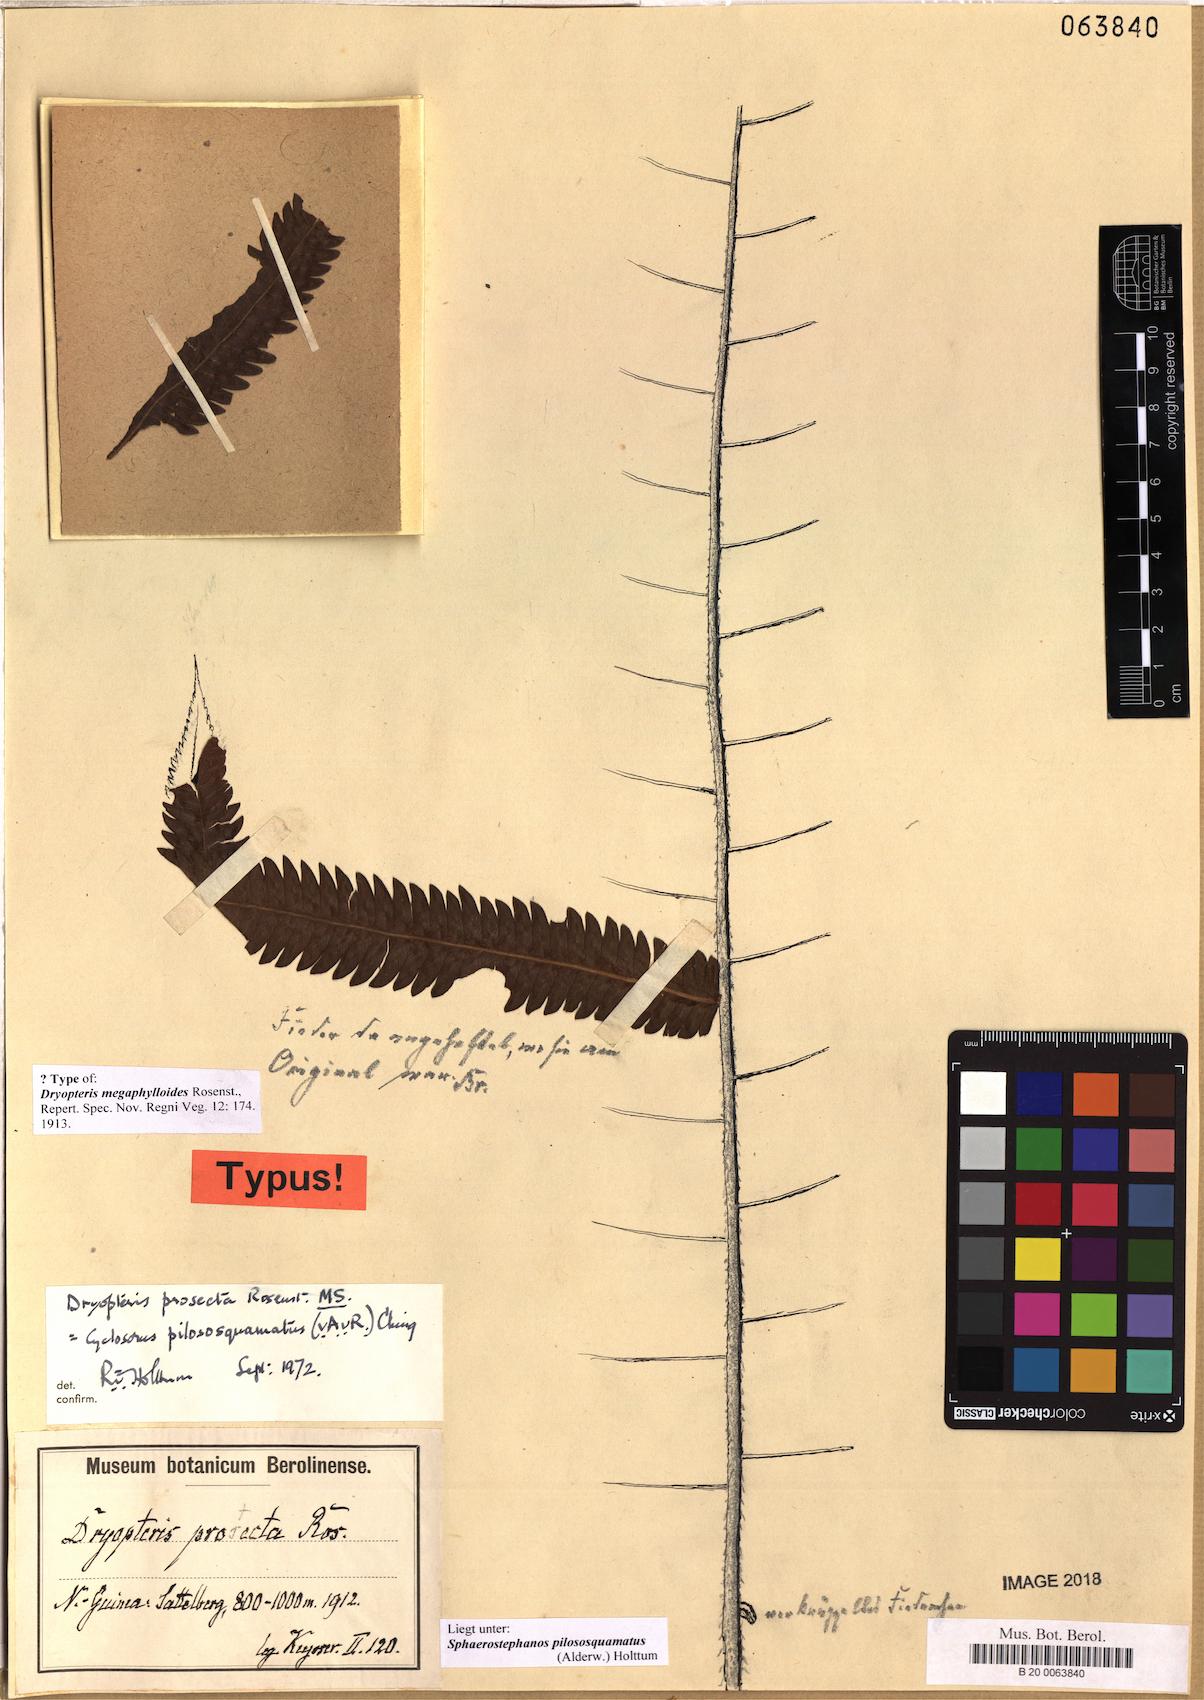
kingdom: Plantae
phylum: Tracheophyta
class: Polypodiopsida
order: Polypodiales
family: Thelypteridaceae
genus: Sphaerostephanos
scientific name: Sphaerostephanos pilososquamatus
